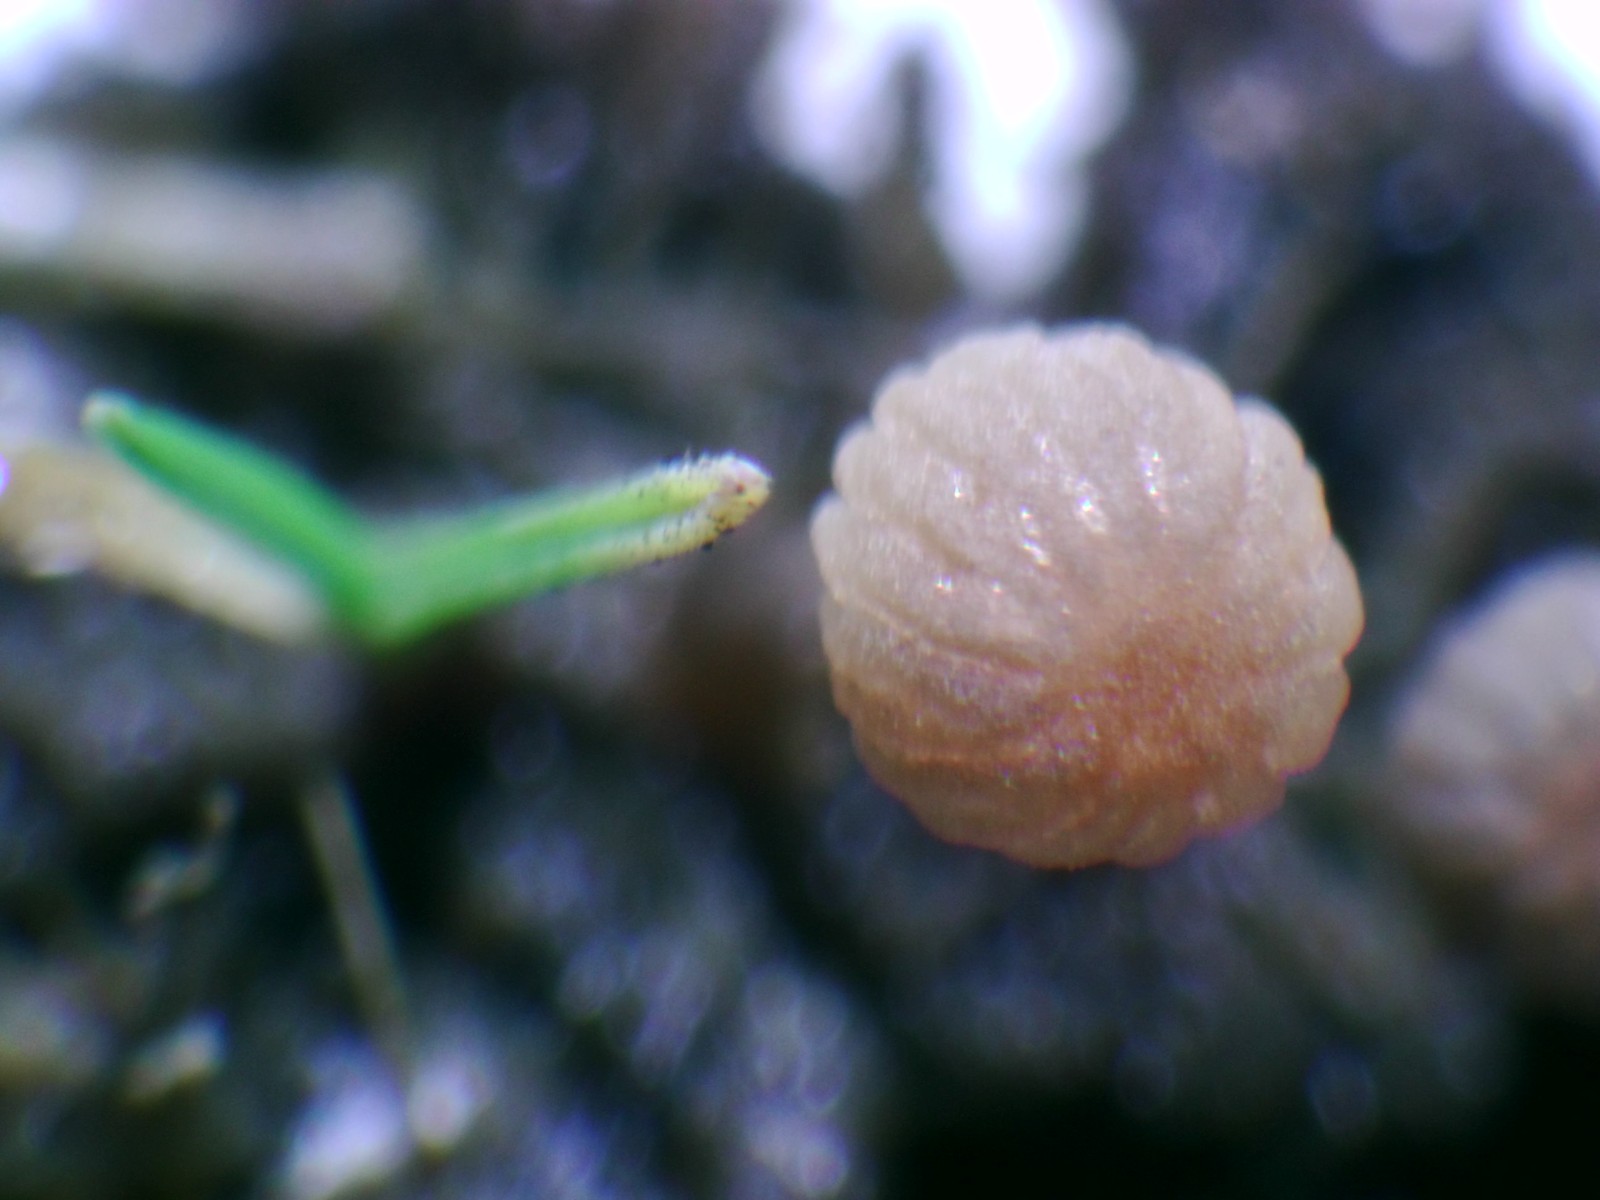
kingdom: Fungi
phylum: Basidiomycota
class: Agaricomycetes
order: Agaricales
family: Psathyrellaceae
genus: Parasola
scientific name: Parasola misera
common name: lillebitte hjulhat
